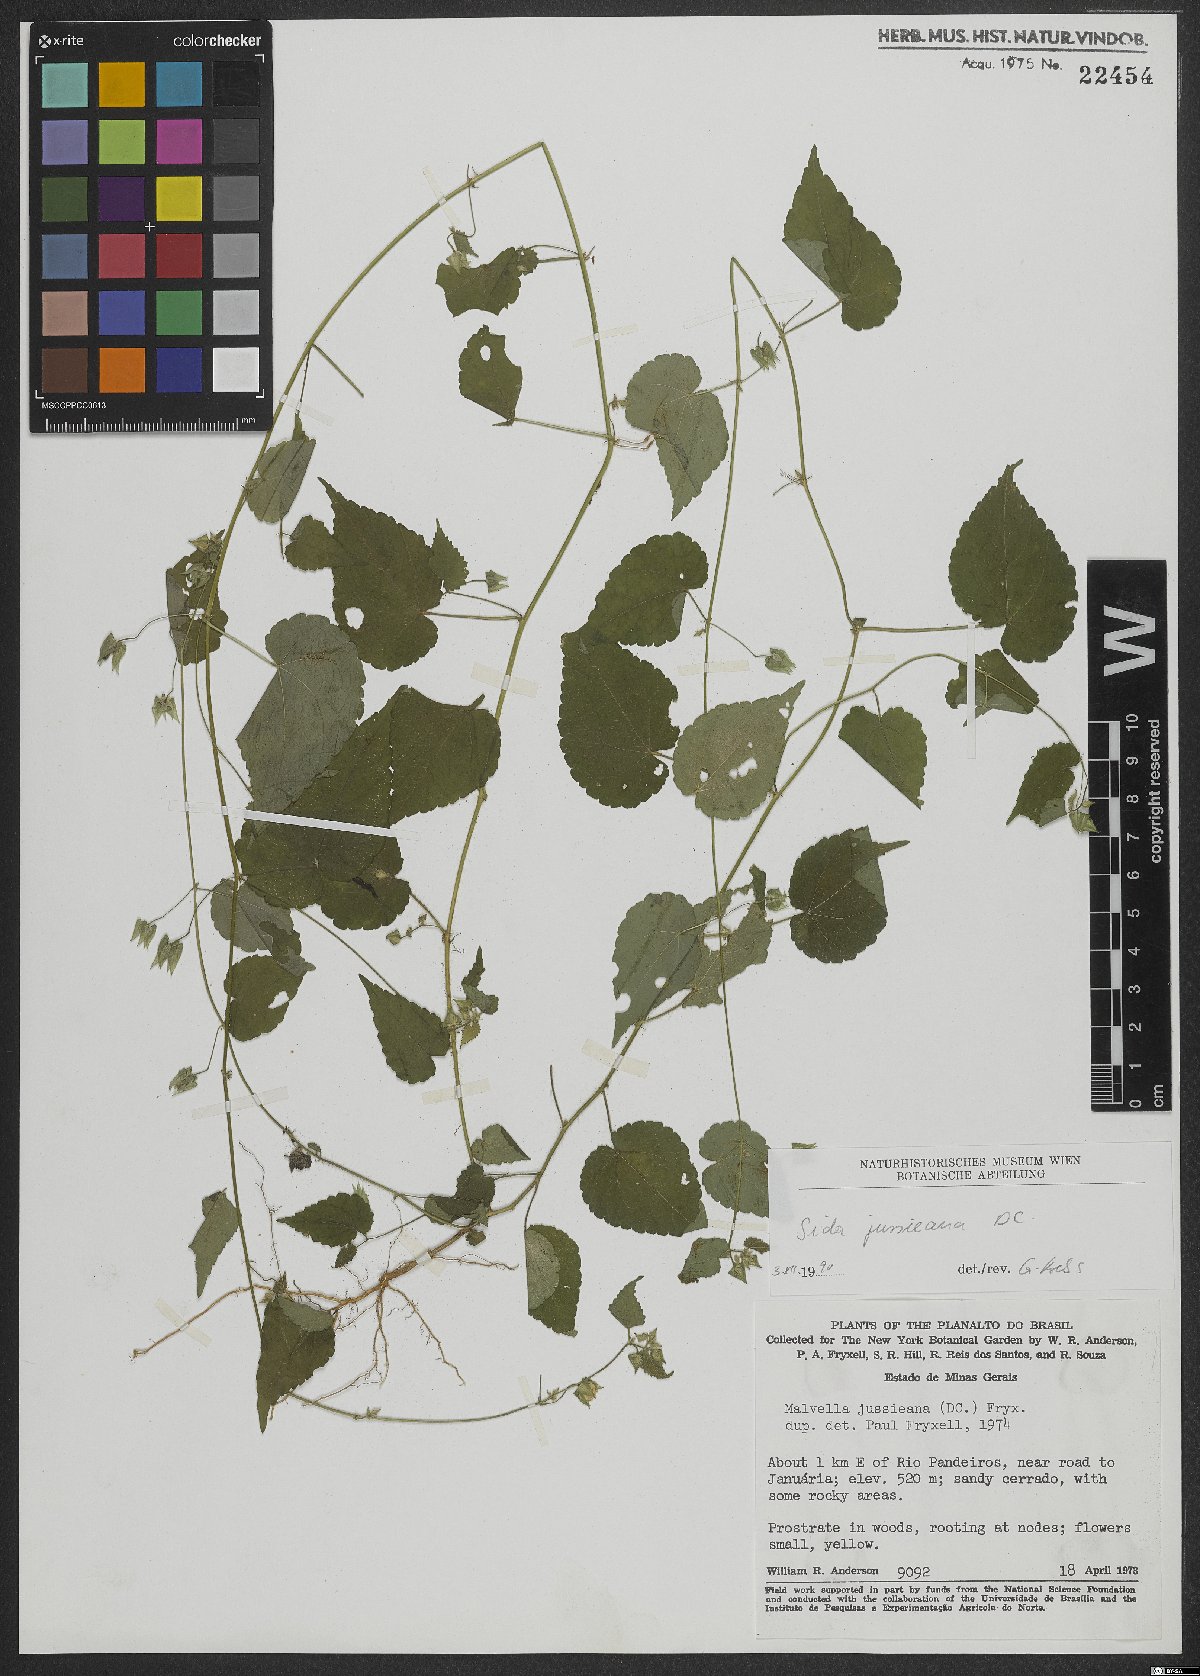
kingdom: Plantae
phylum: Tracheophyta
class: Magnoliopsida
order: Malvales
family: Malvaceae
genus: Sida
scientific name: Sida jussiaeana
